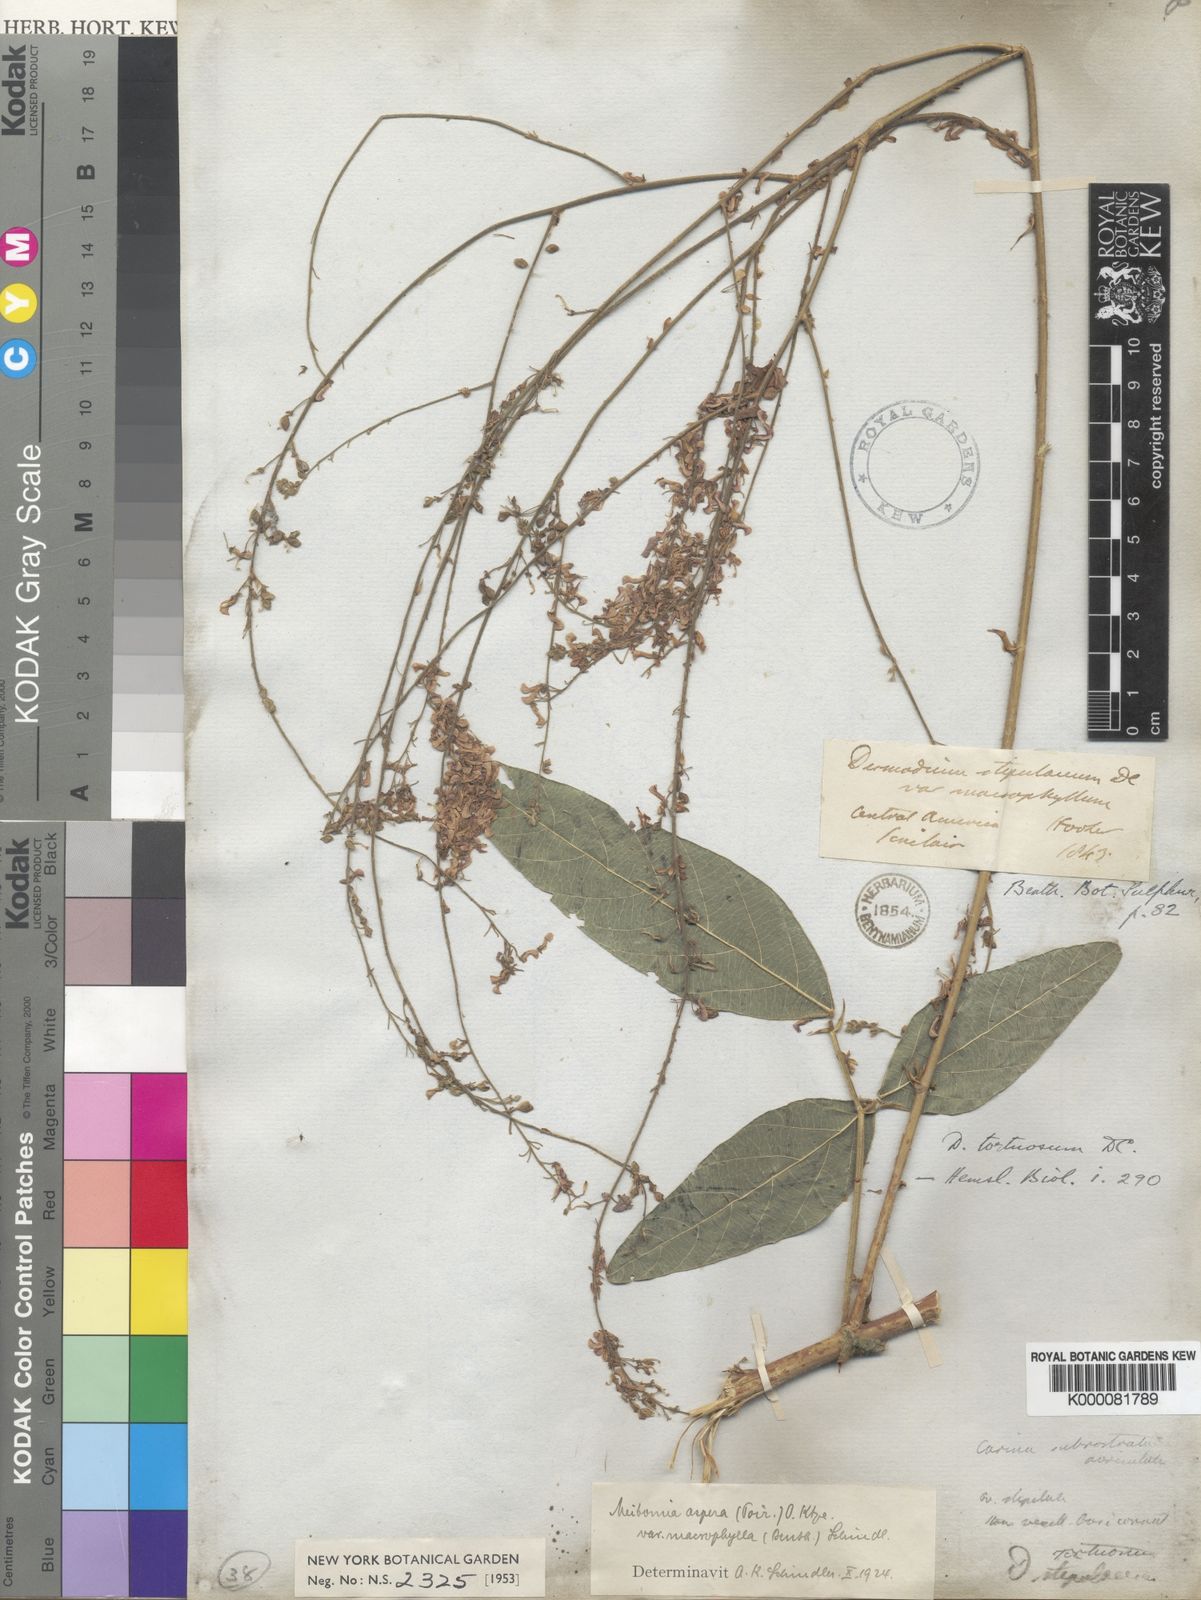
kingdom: Plantae
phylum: Tracheophyta
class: Magnoliopsida
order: Fabales
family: Fabaceae
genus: Desmodium
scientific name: Desmodium tortuosum
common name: Dixie ticktrefoil
